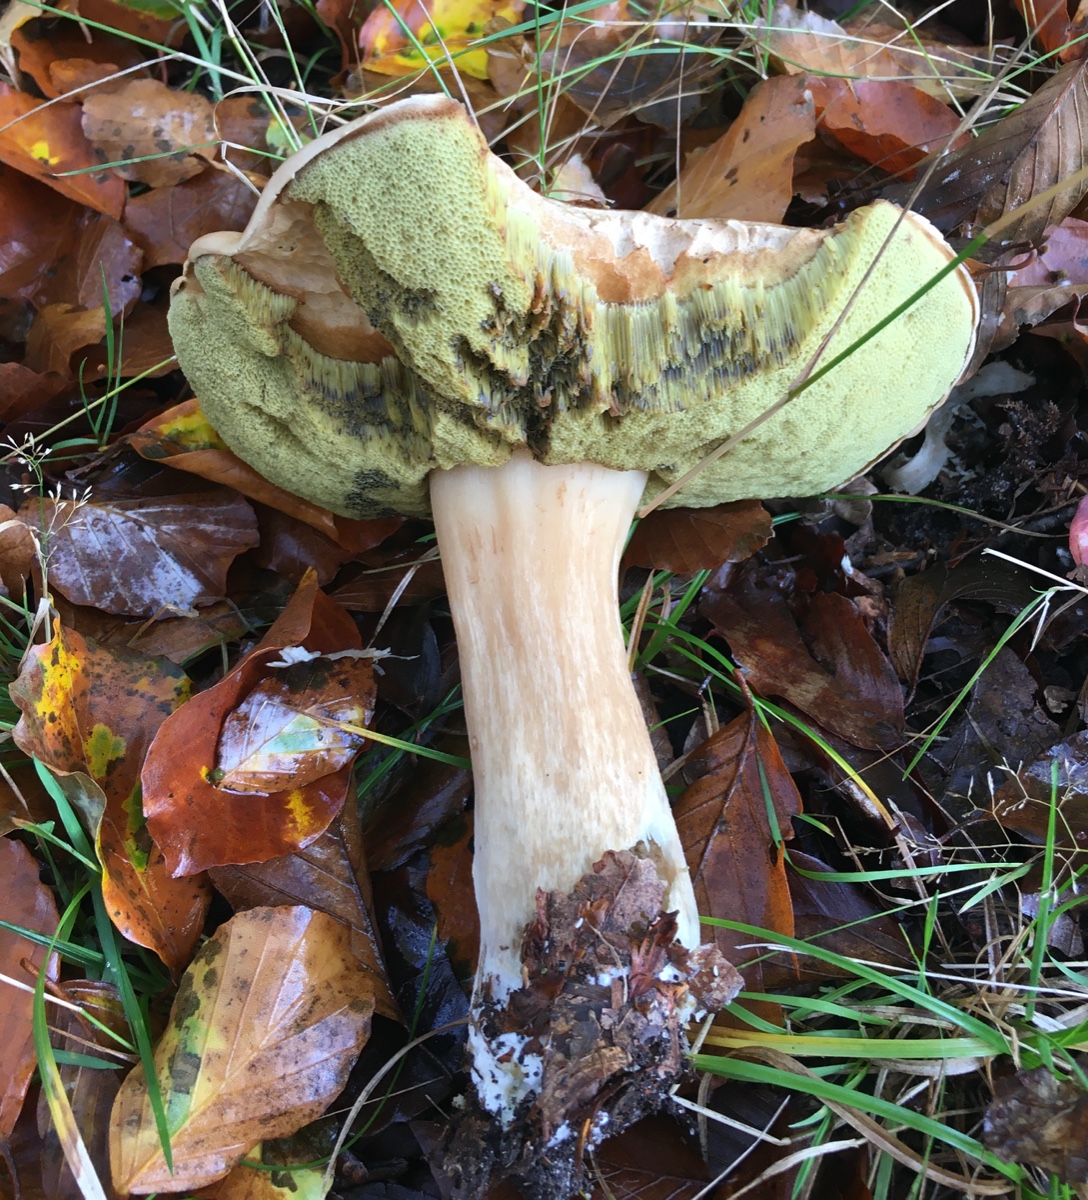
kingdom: Fungi
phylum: Basidiomycota
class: Agaricomycetes
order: Boletales
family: Boletaceae
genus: Boletus
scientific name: Boletus edulis
